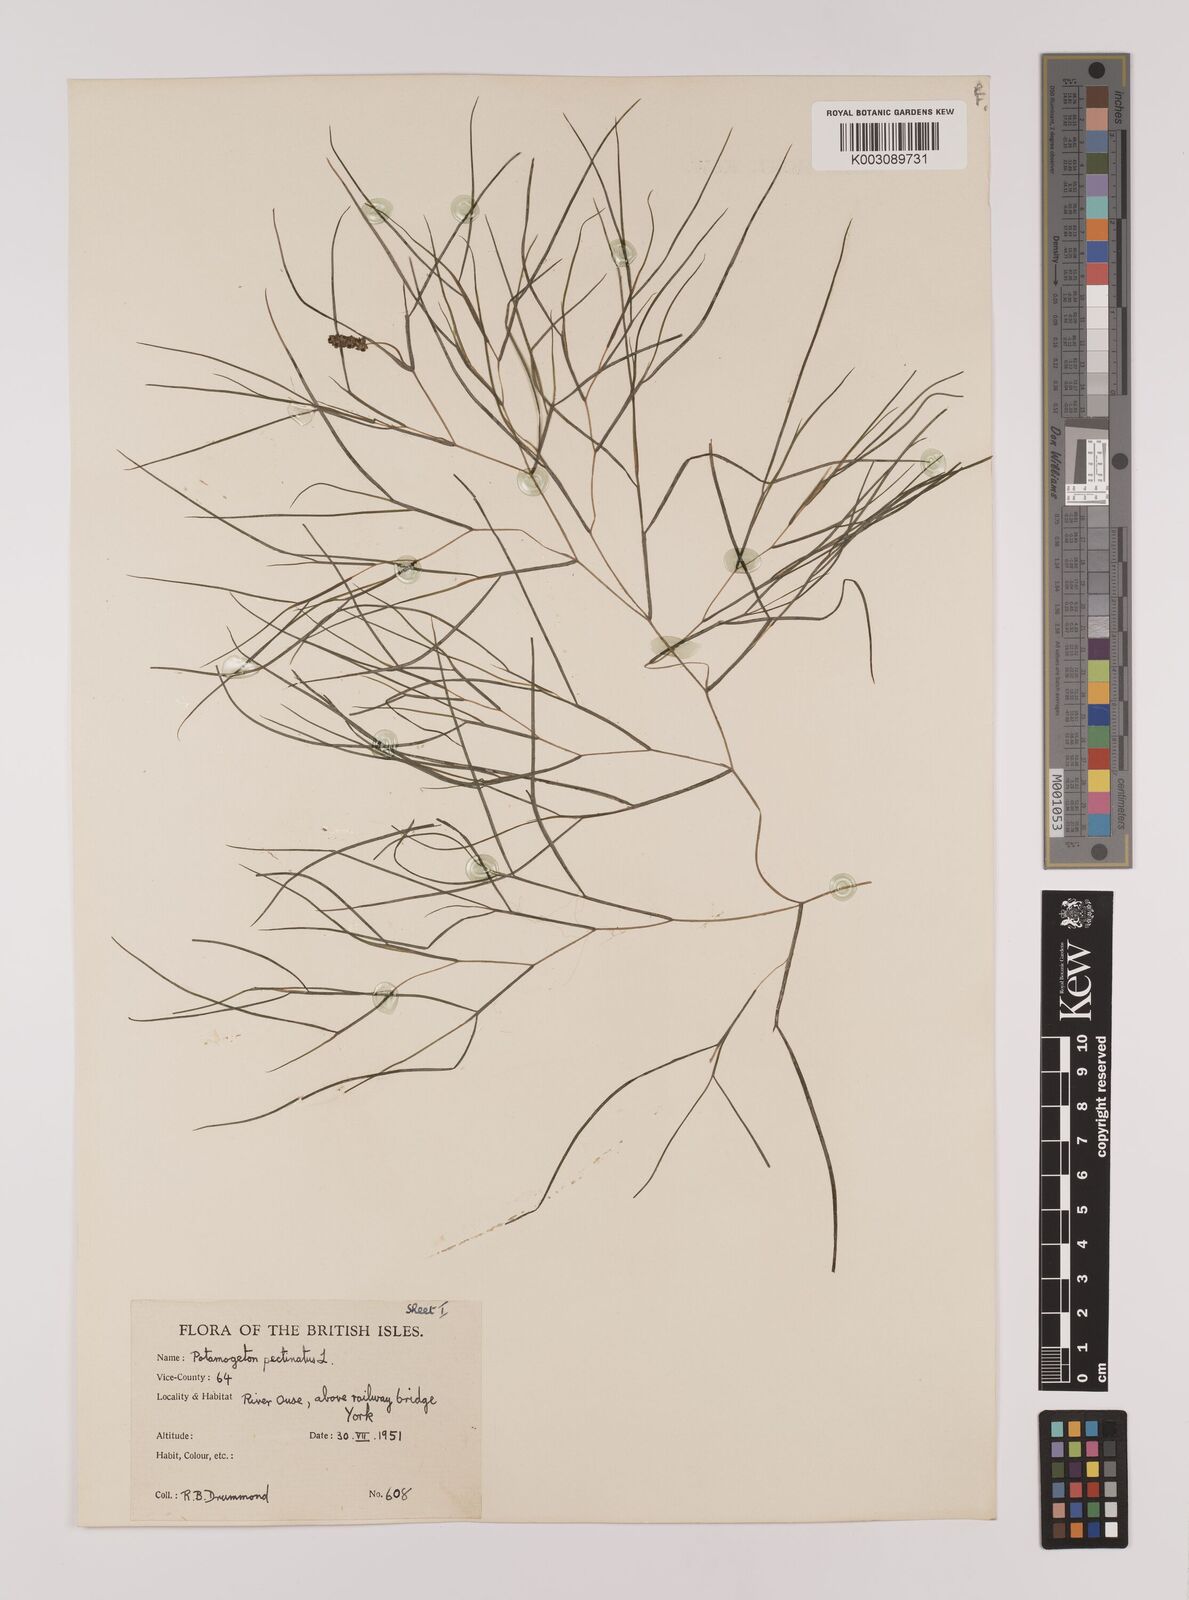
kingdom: Plantae
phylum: Tracheophyta
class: Liliopsida
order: Alismatales
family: Potamogetonaceae
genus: Stuckenia
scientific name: Stuckenia pectinata
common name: Sago pondweed
